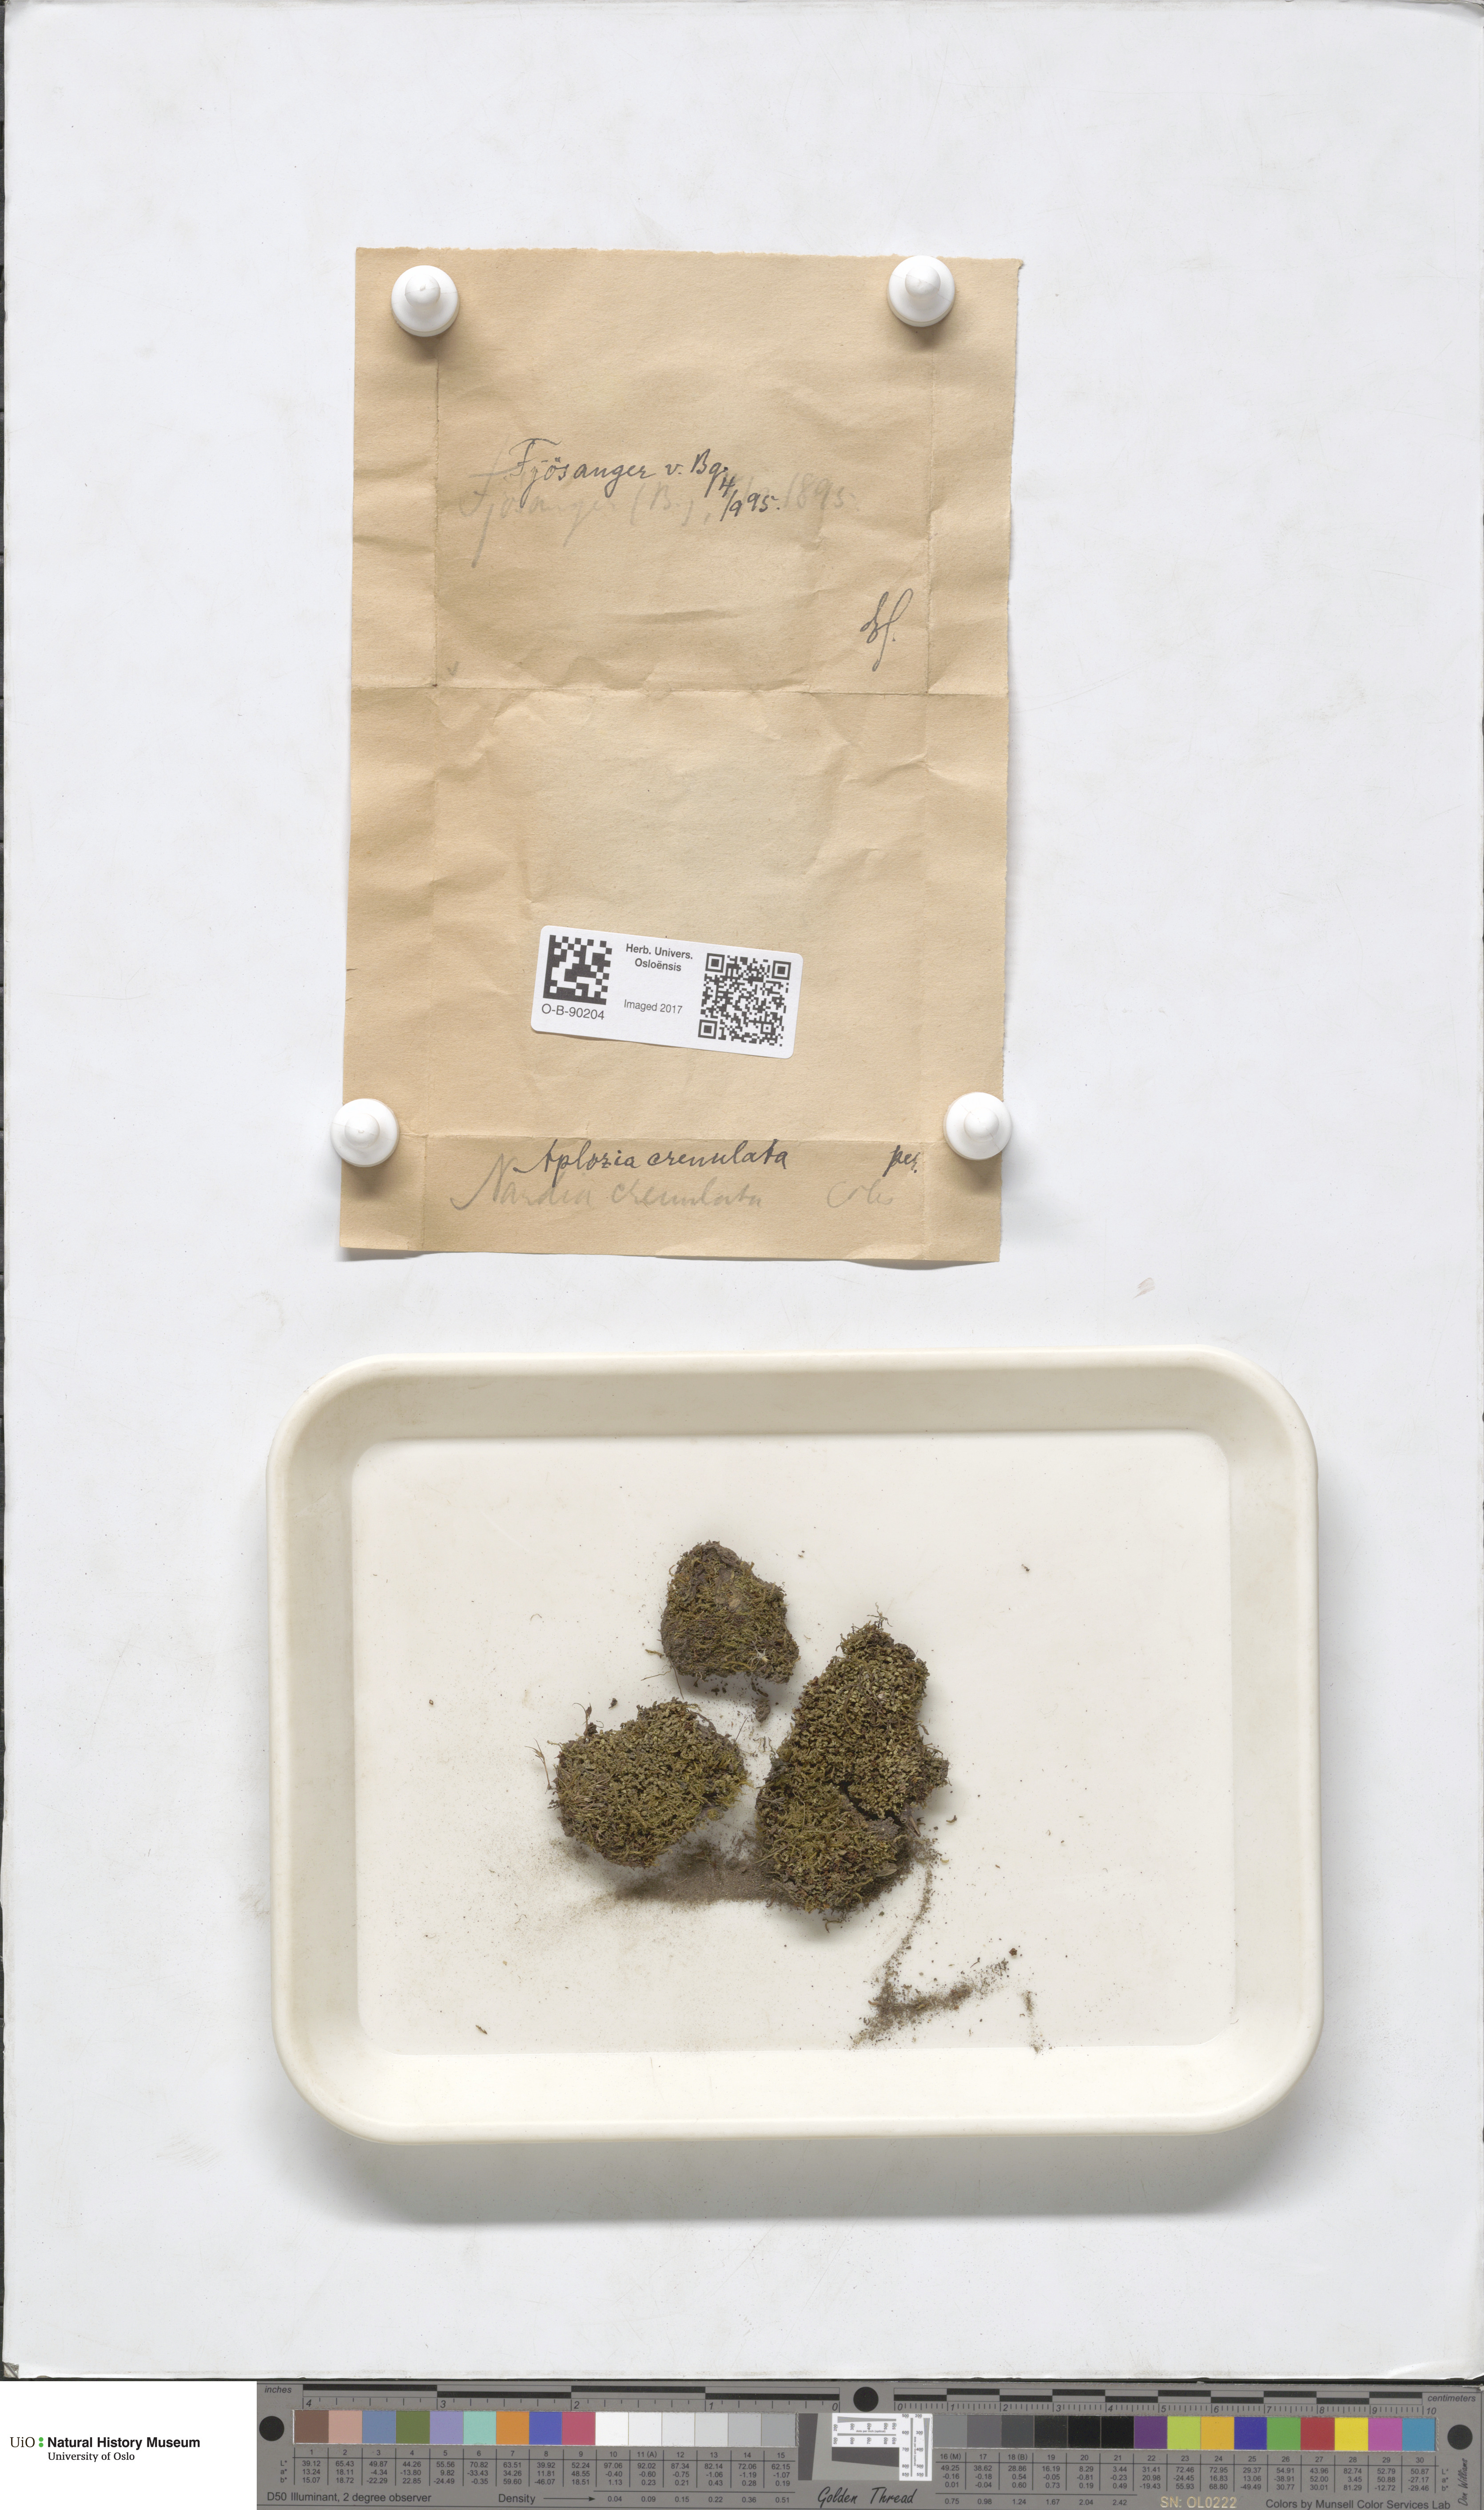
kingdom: Plantae
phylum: Marchantiophyta
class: Jungermanniopsida
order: Jungermanniales
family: Solenostomataceae
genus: Solenostoma
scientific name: Solenostoma gracillimum
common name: Crenulated flapwort
